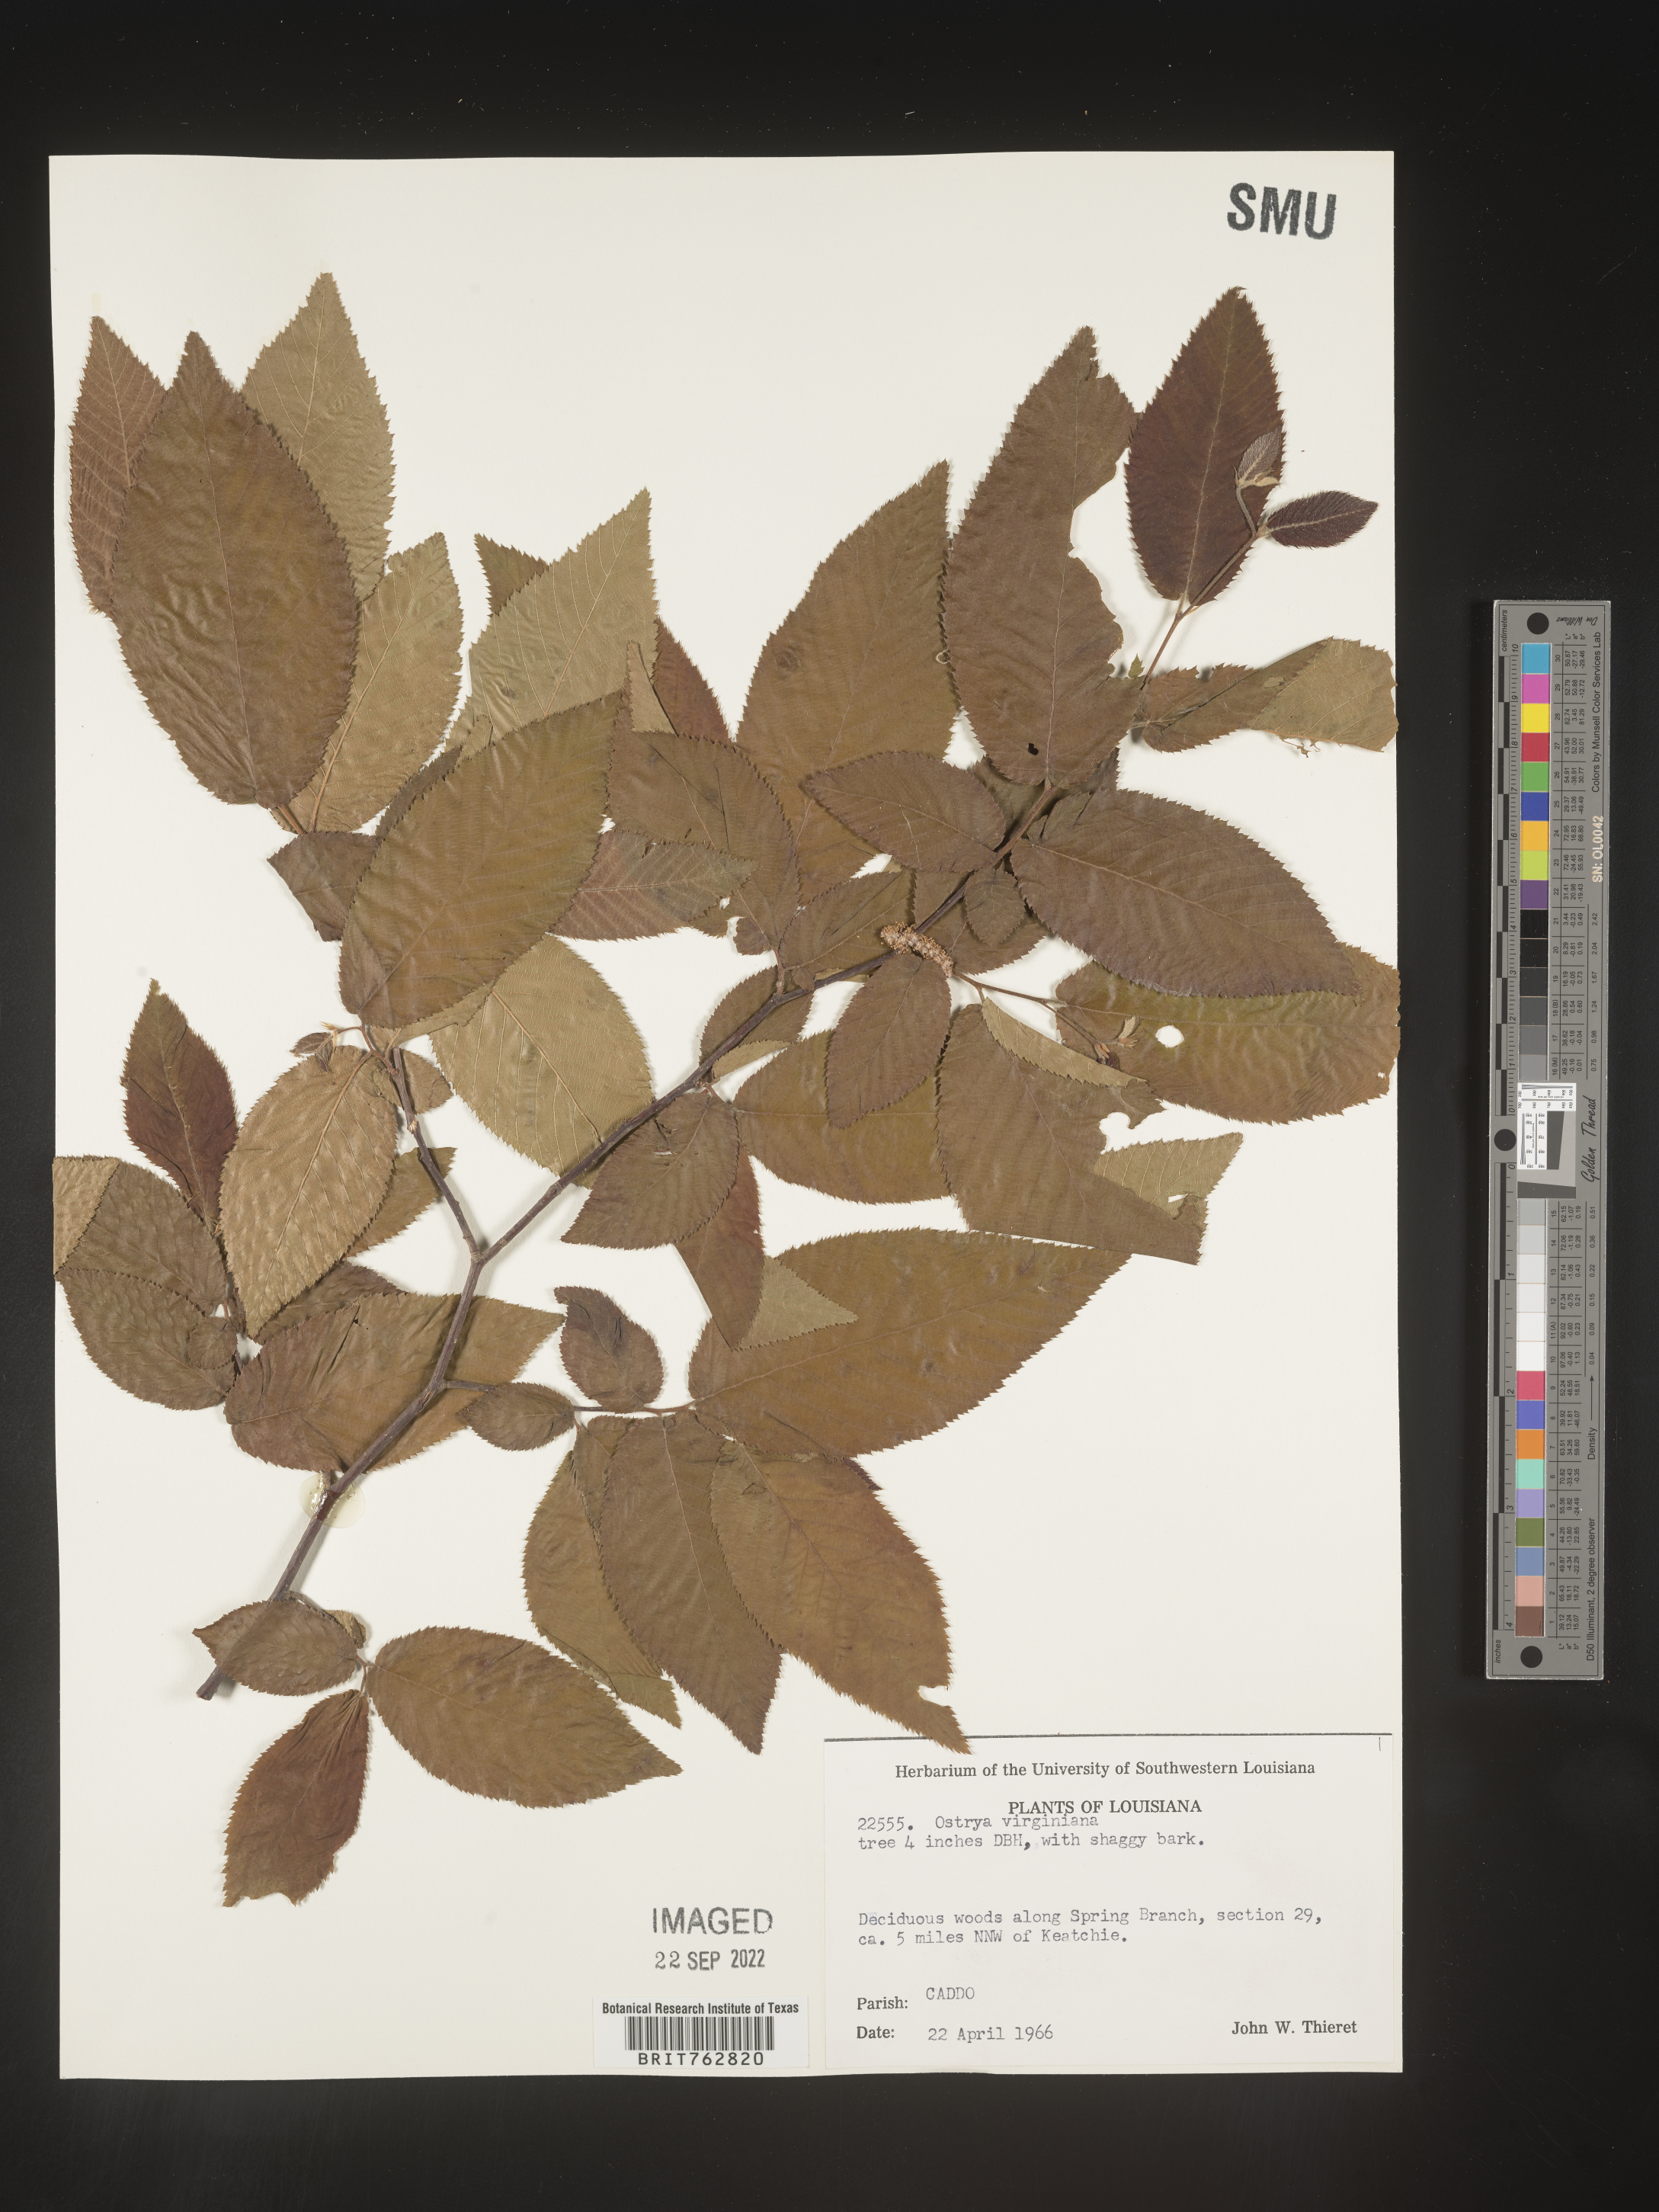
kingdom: Plantae
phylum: Tracheophyta
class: Magnoliopsida
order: Fagales
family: Betulaceae
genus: Ostrya
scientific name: Ostrya virginiana
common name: Ironwood
